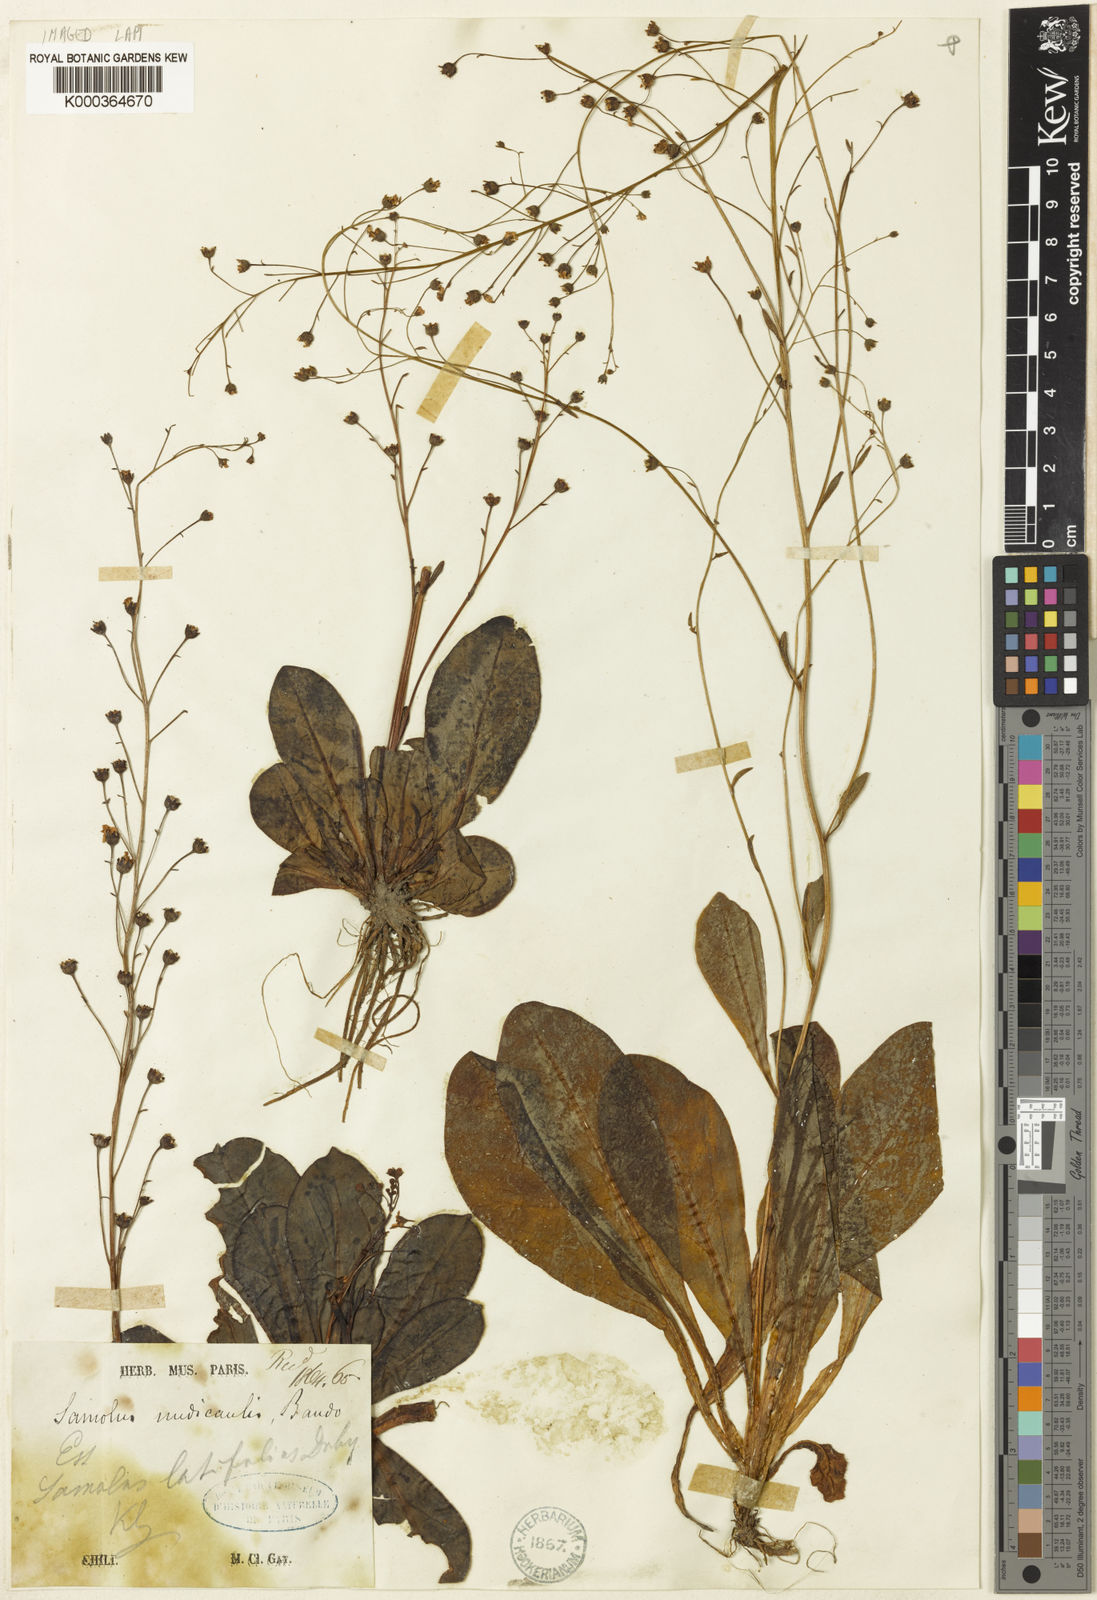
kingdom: Plantae
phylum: Tracheophyta
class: Magnoliopsida
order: Ericales
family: Primulaceae
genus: Samolus
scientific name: Samolus latifolius
